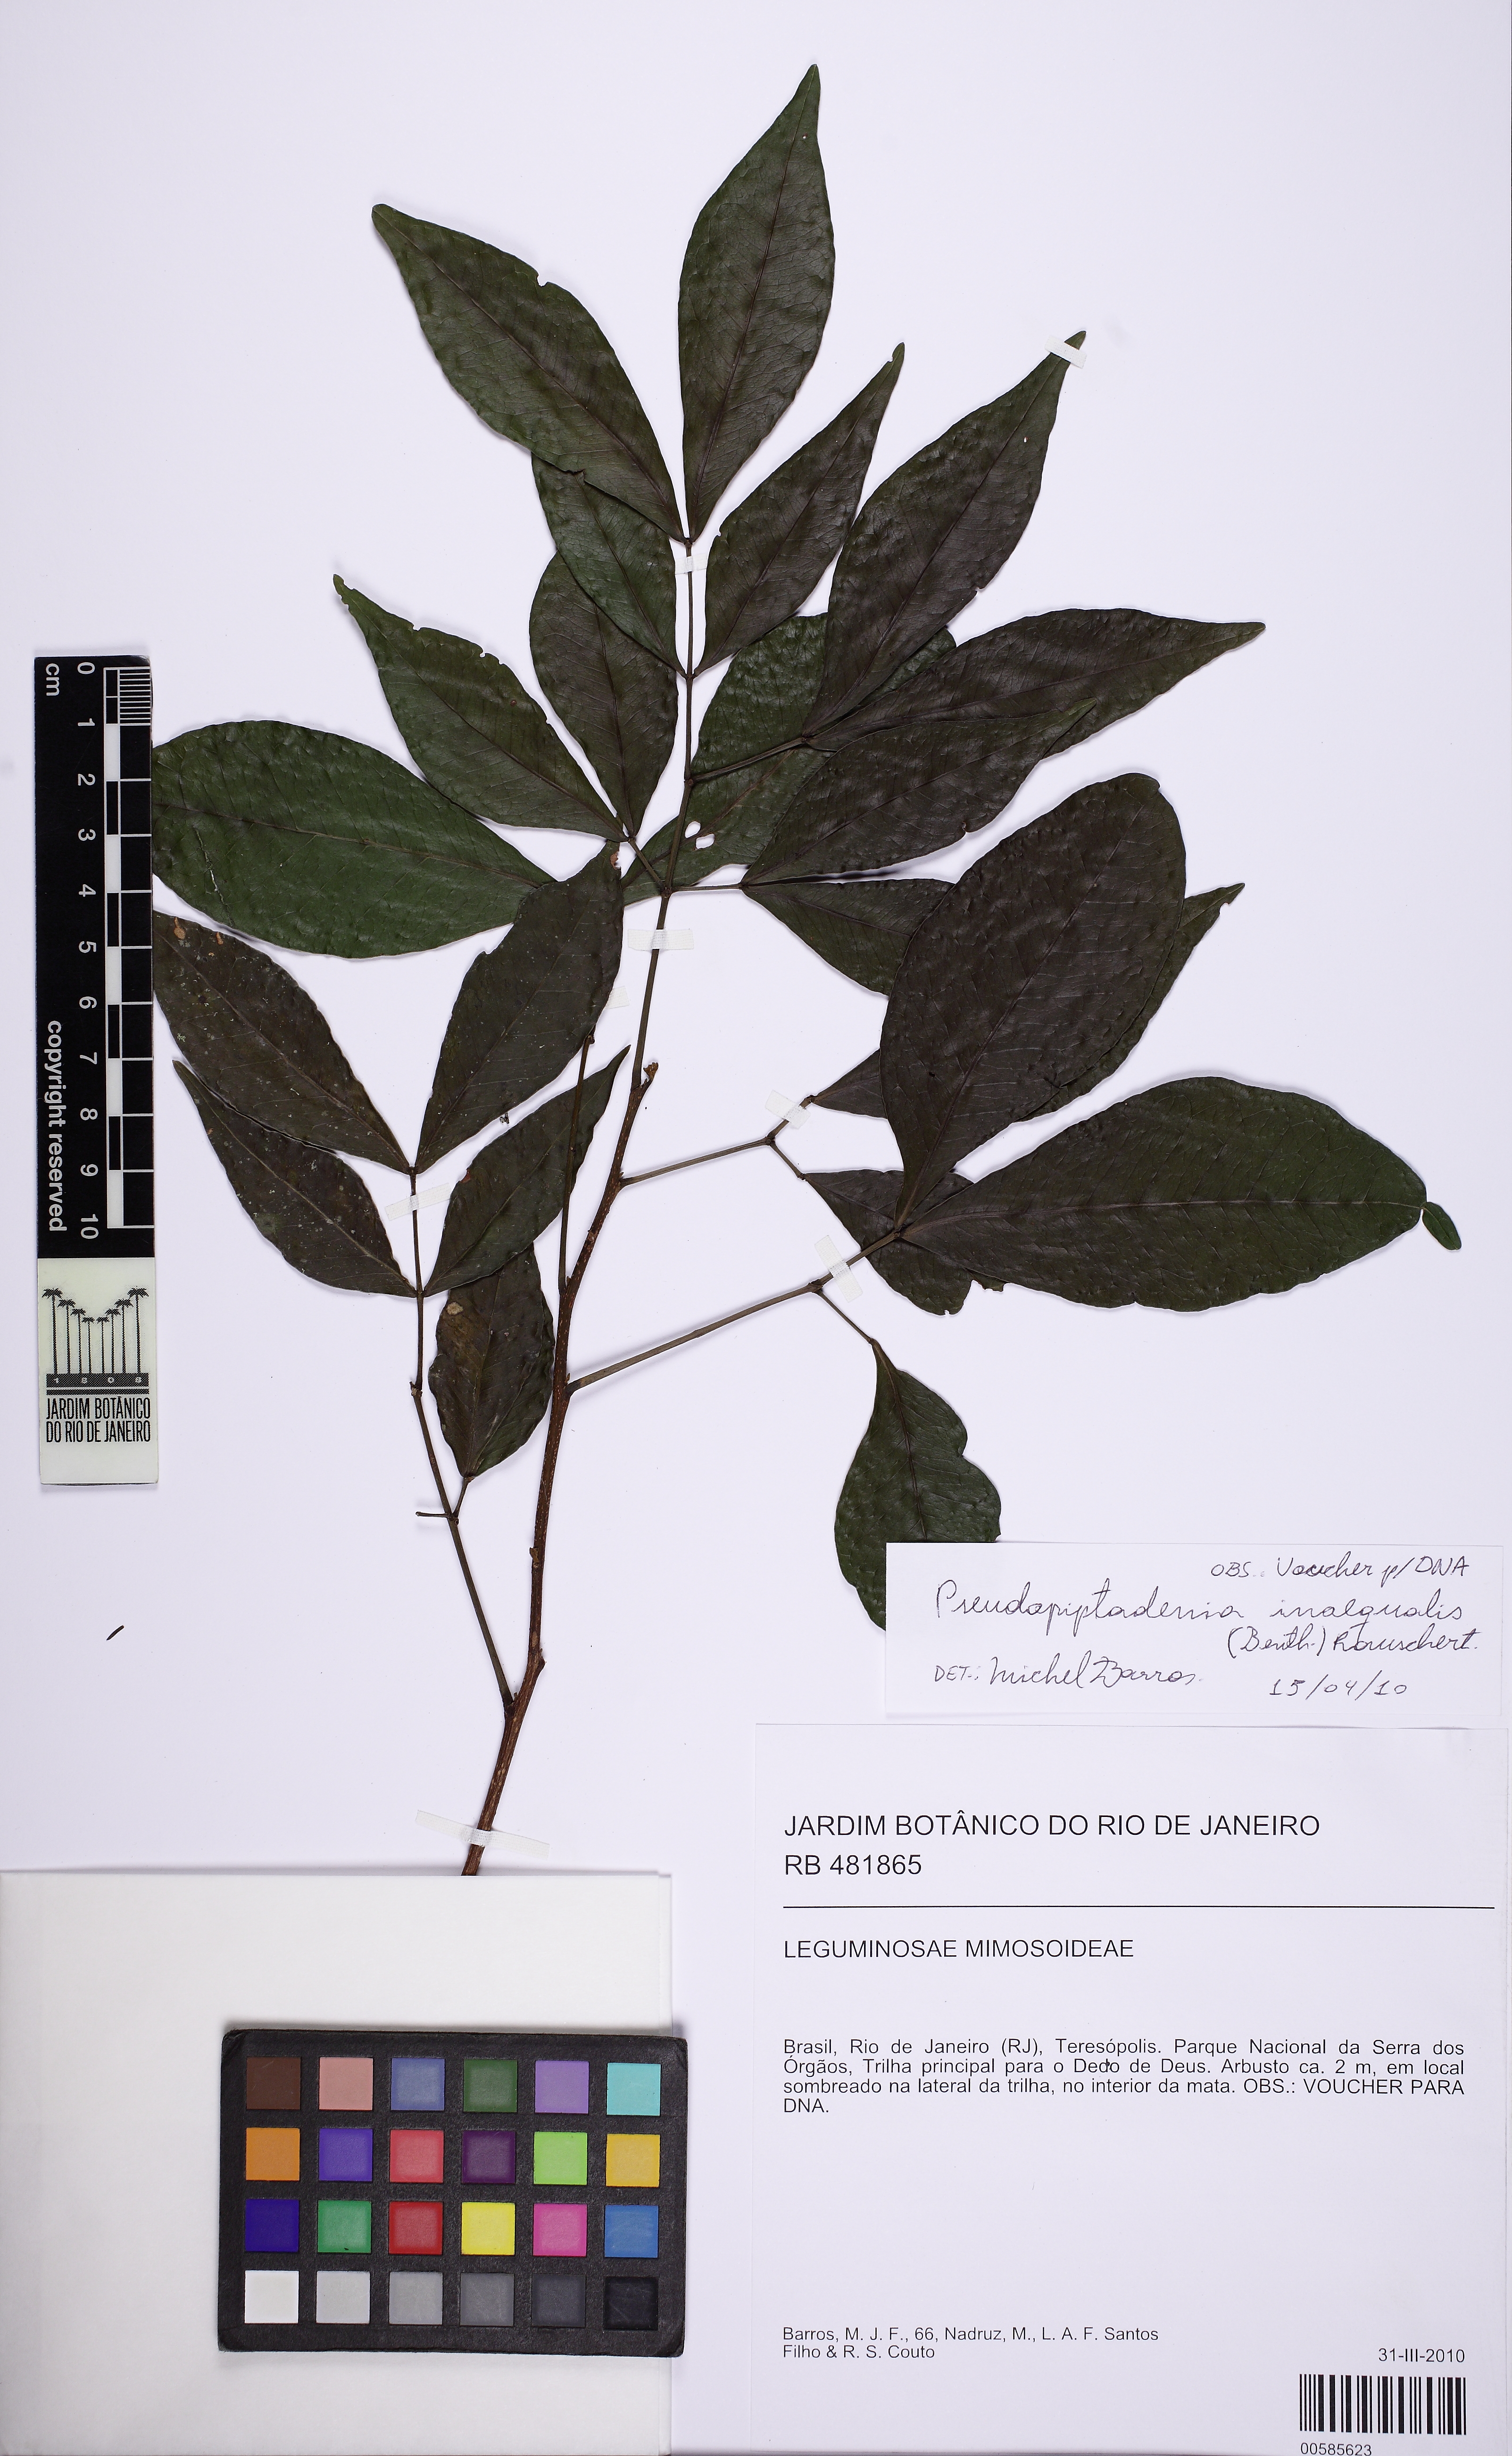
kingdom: Plantae
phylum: Tracheophyta
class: Magnoliopsida
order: Fabales
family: Fabaceae
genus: Pseudopiptadenia
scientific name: Pseudopiptadenia inaequalis
